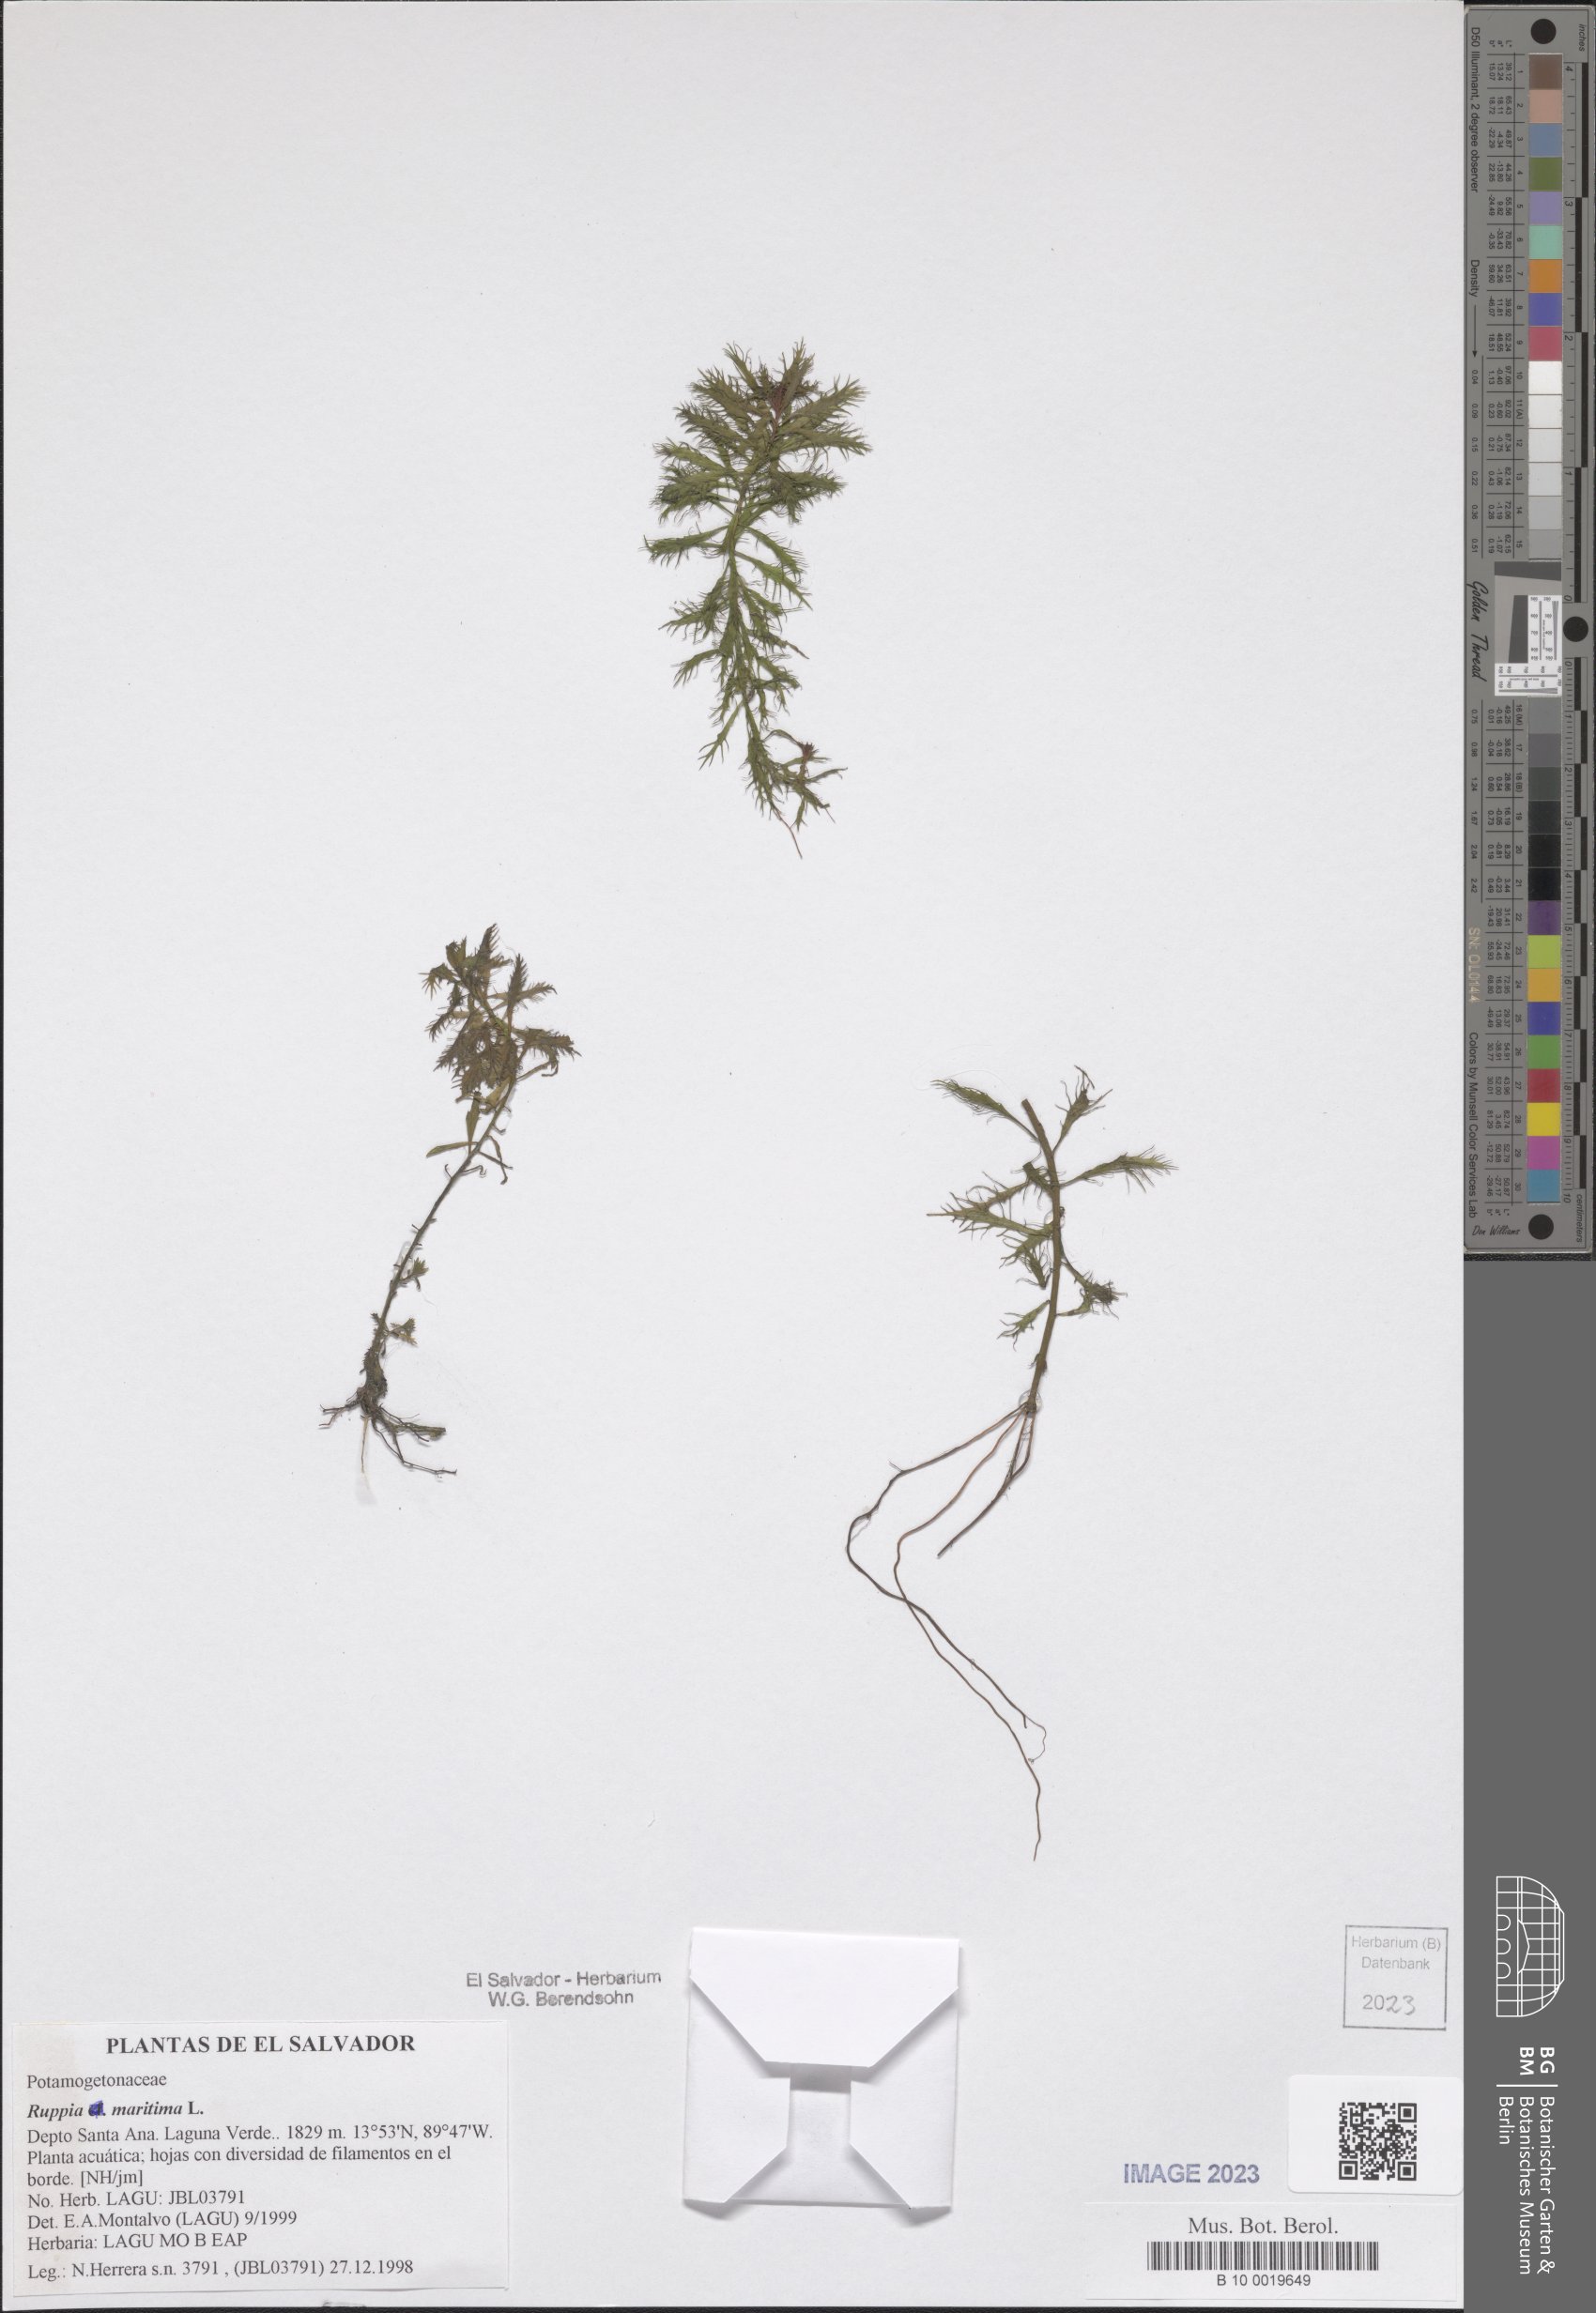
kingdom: Plantae
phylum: Tracheophyta
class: Liliopsida
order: Alismatales
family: Ruppiaceae
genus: Ruppia
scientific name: Ruppia maritima
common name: Beaked tasselweed
